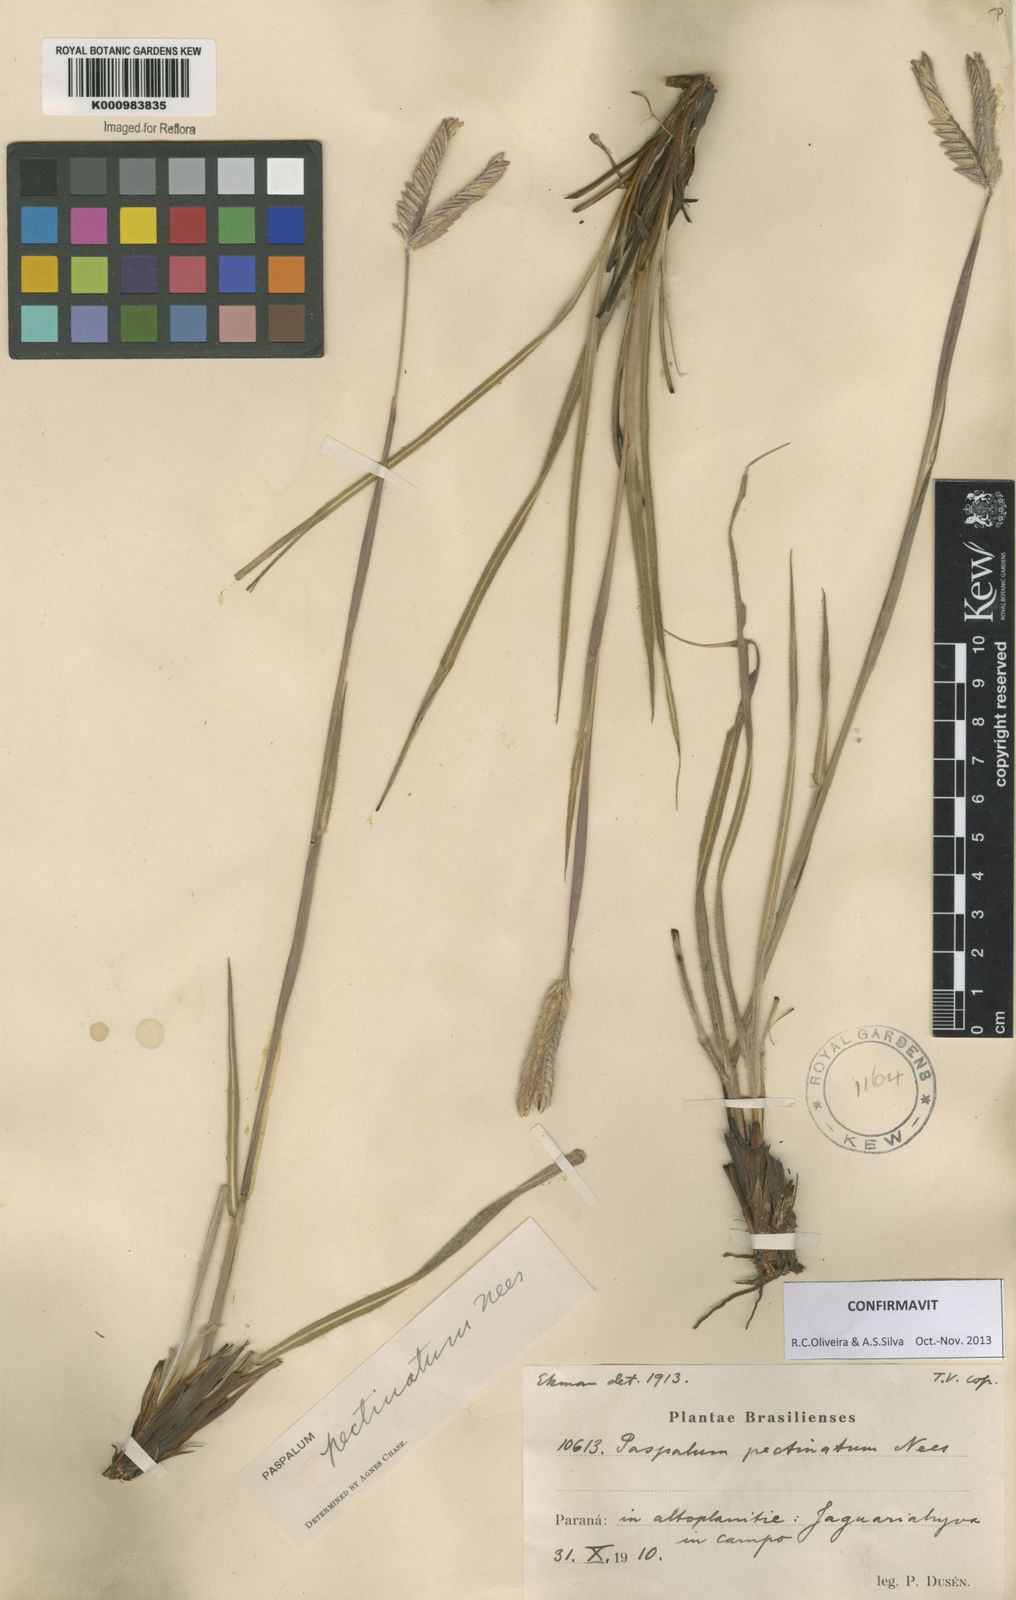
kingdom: Plantae
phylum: Tracheophyta
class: Liliopsida
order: Poales
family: Poaceae
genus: Paspalum
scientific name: Paspalum
